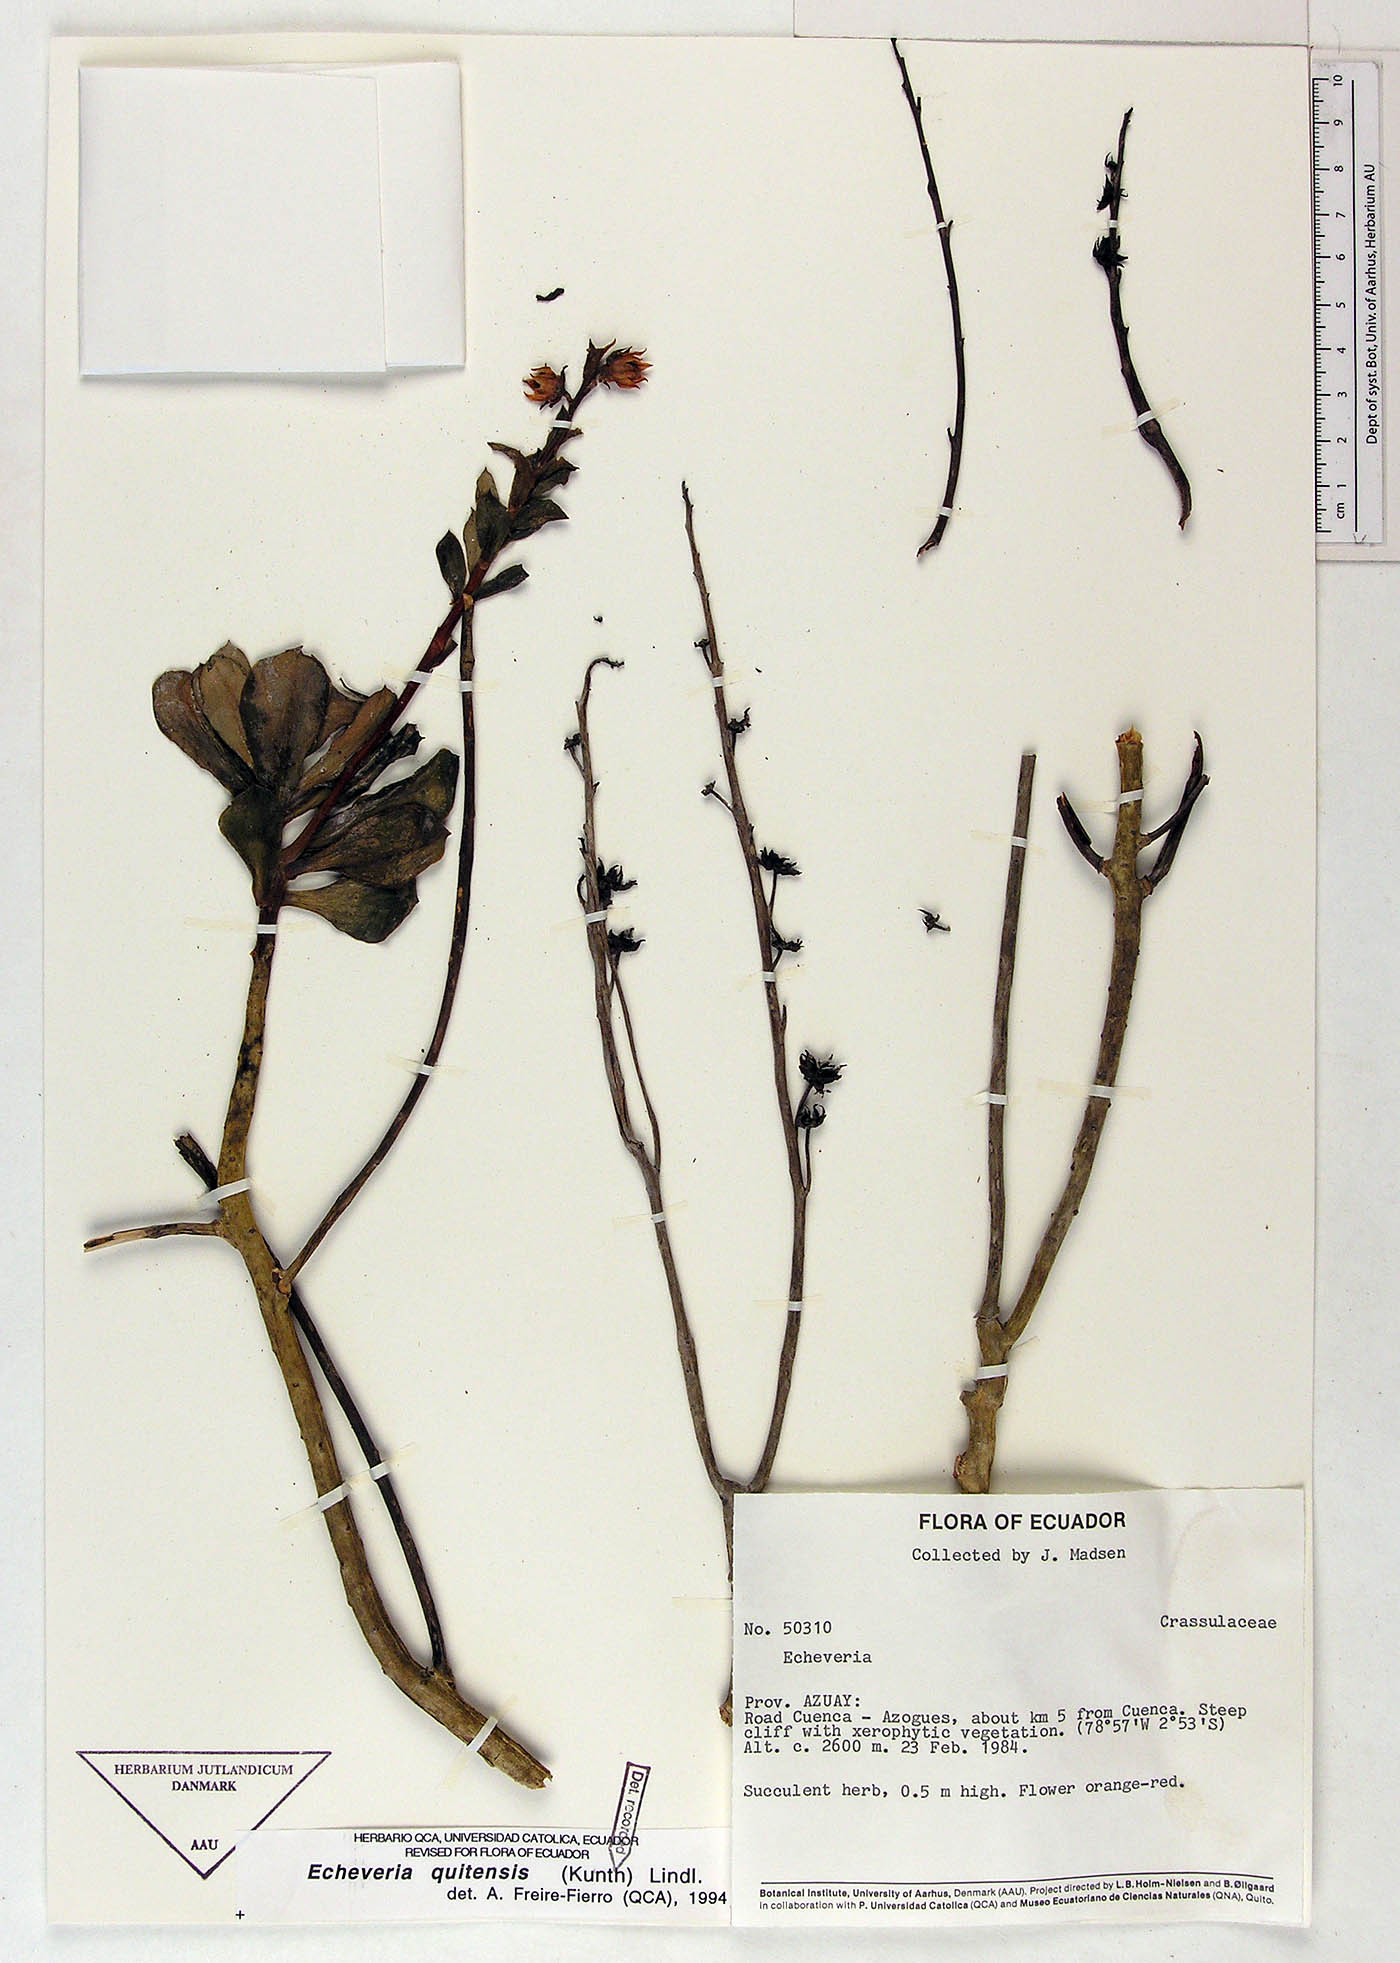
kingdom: Plantae
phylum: Tracheophyta
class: Magnoliopsida
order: Saxifragales
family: Crassulaceae
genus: Echeveria
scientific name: Echeveria quitensis
